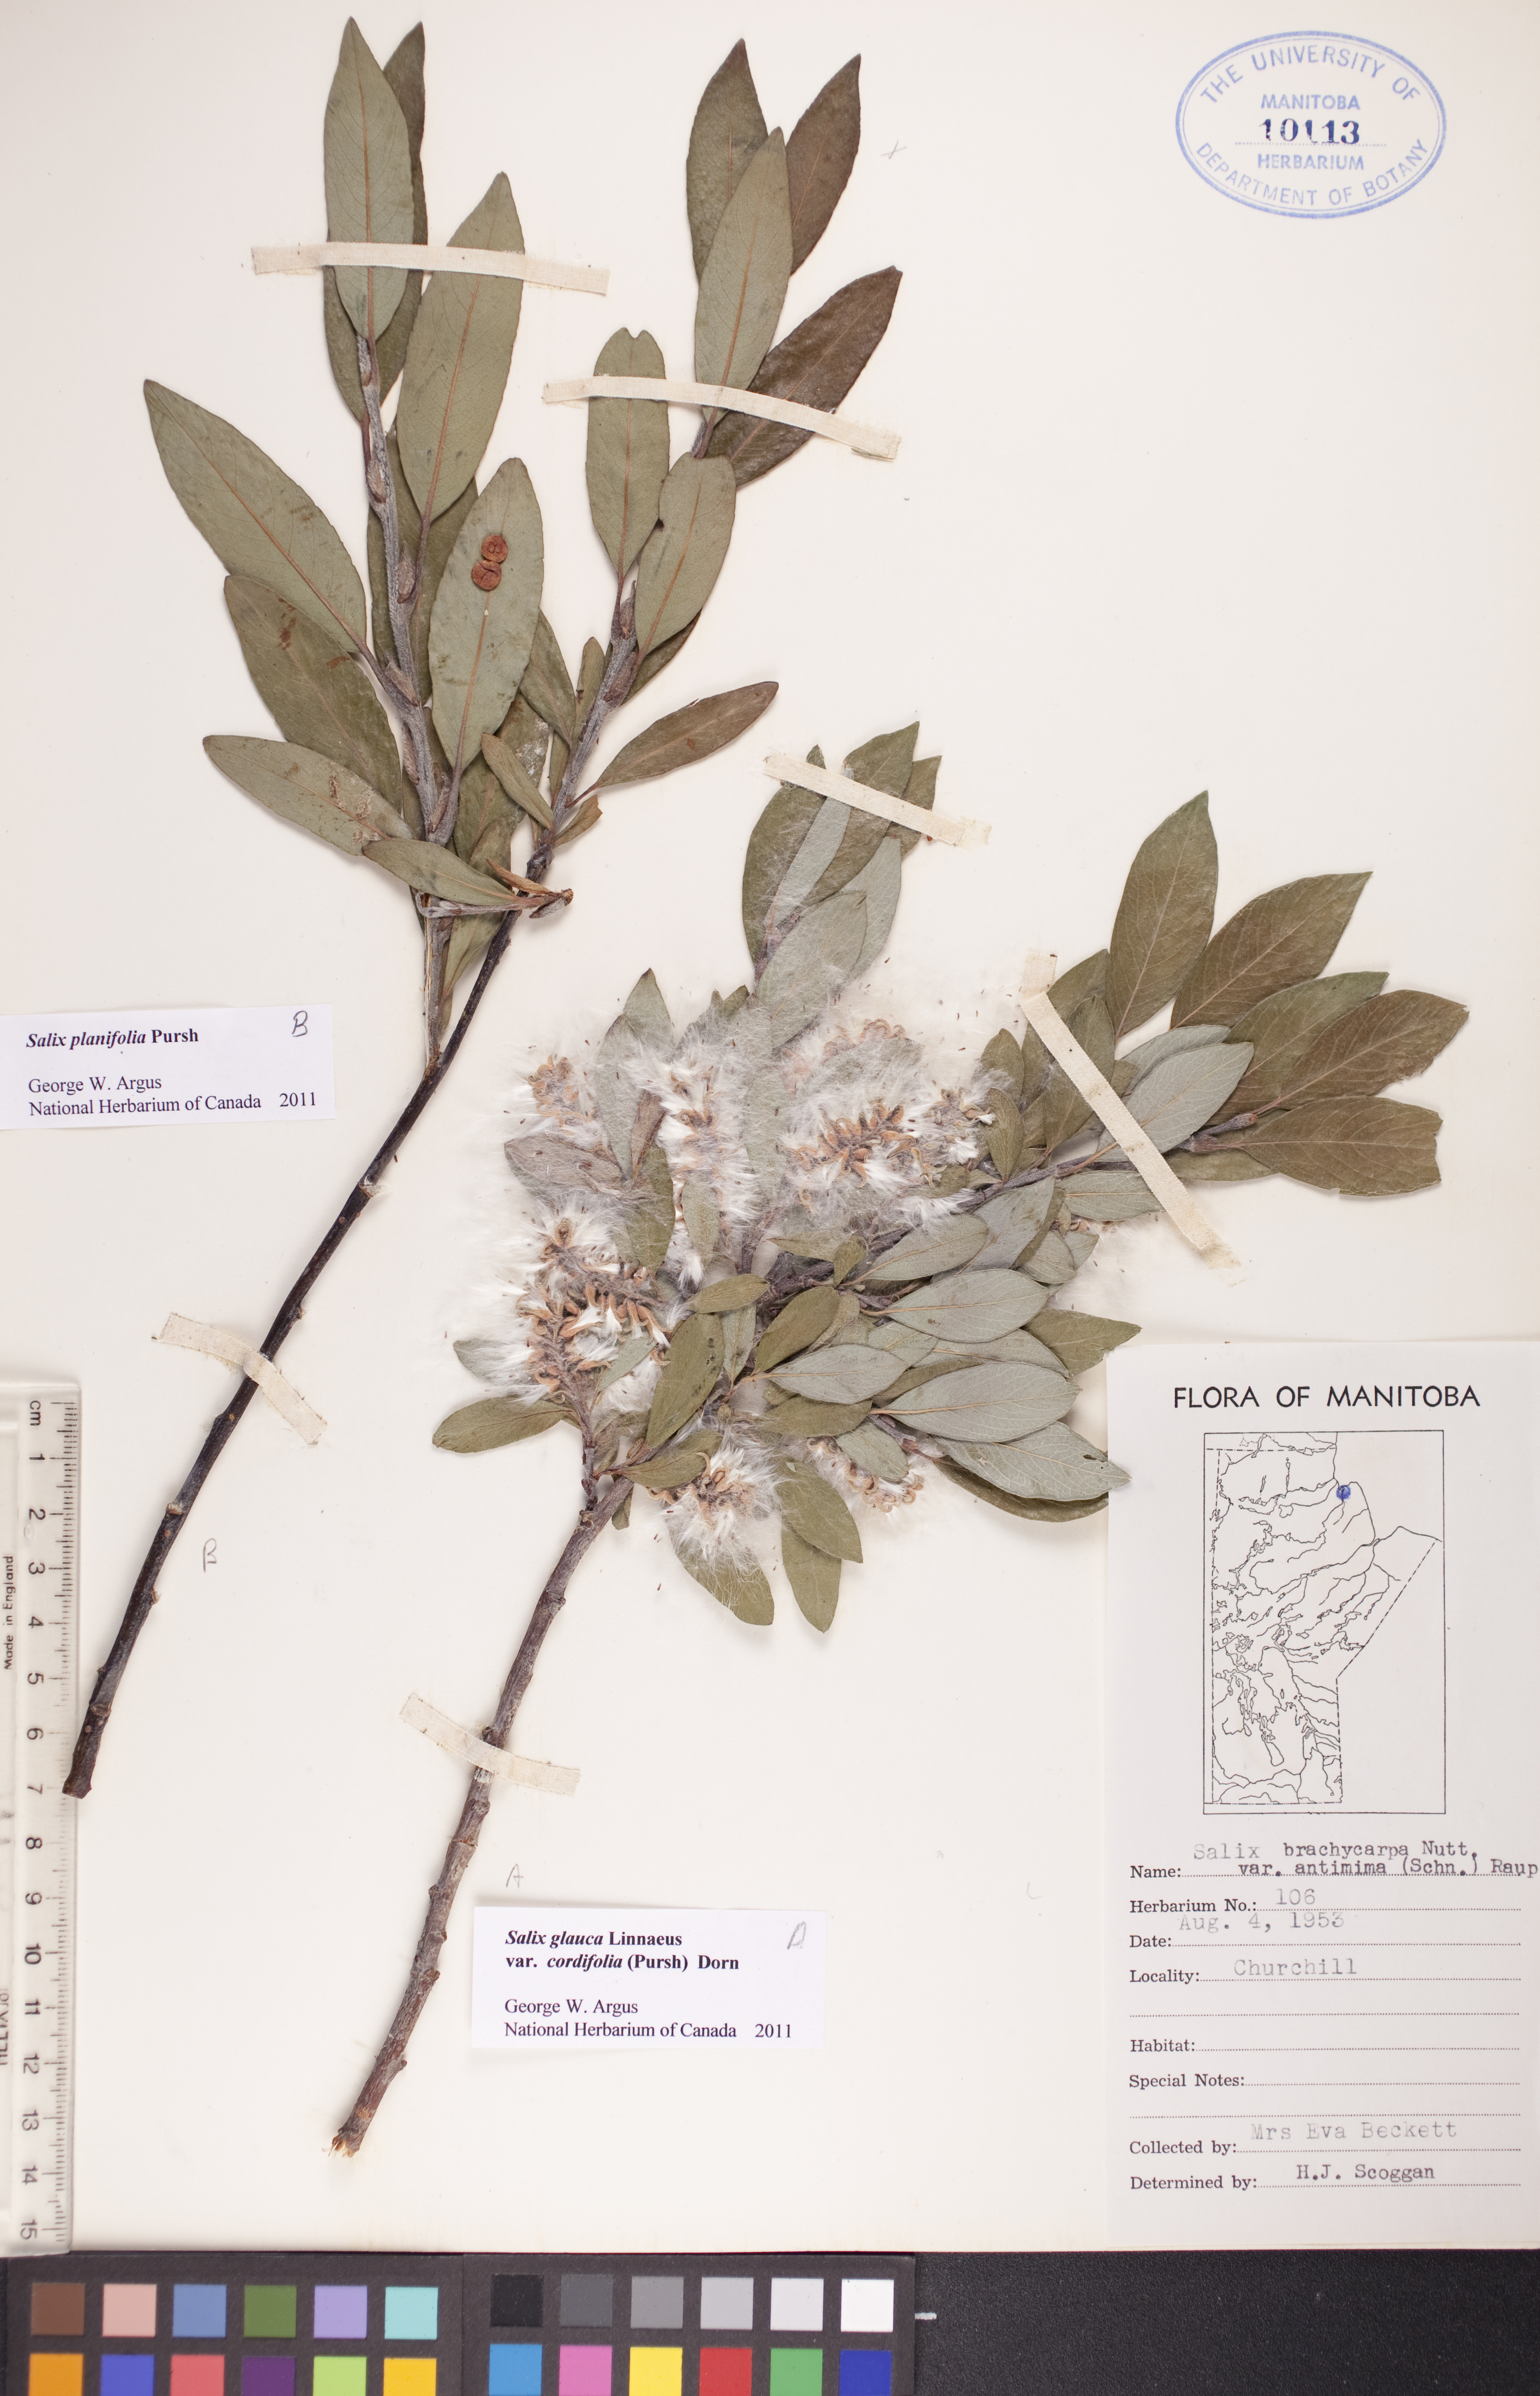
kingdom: Plantae
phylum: Tracheophyta
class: Magnoliopsida
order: Malpighiales
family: Salicaceae
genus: Salix
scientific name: Salix glauca
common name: Glaucous willow
